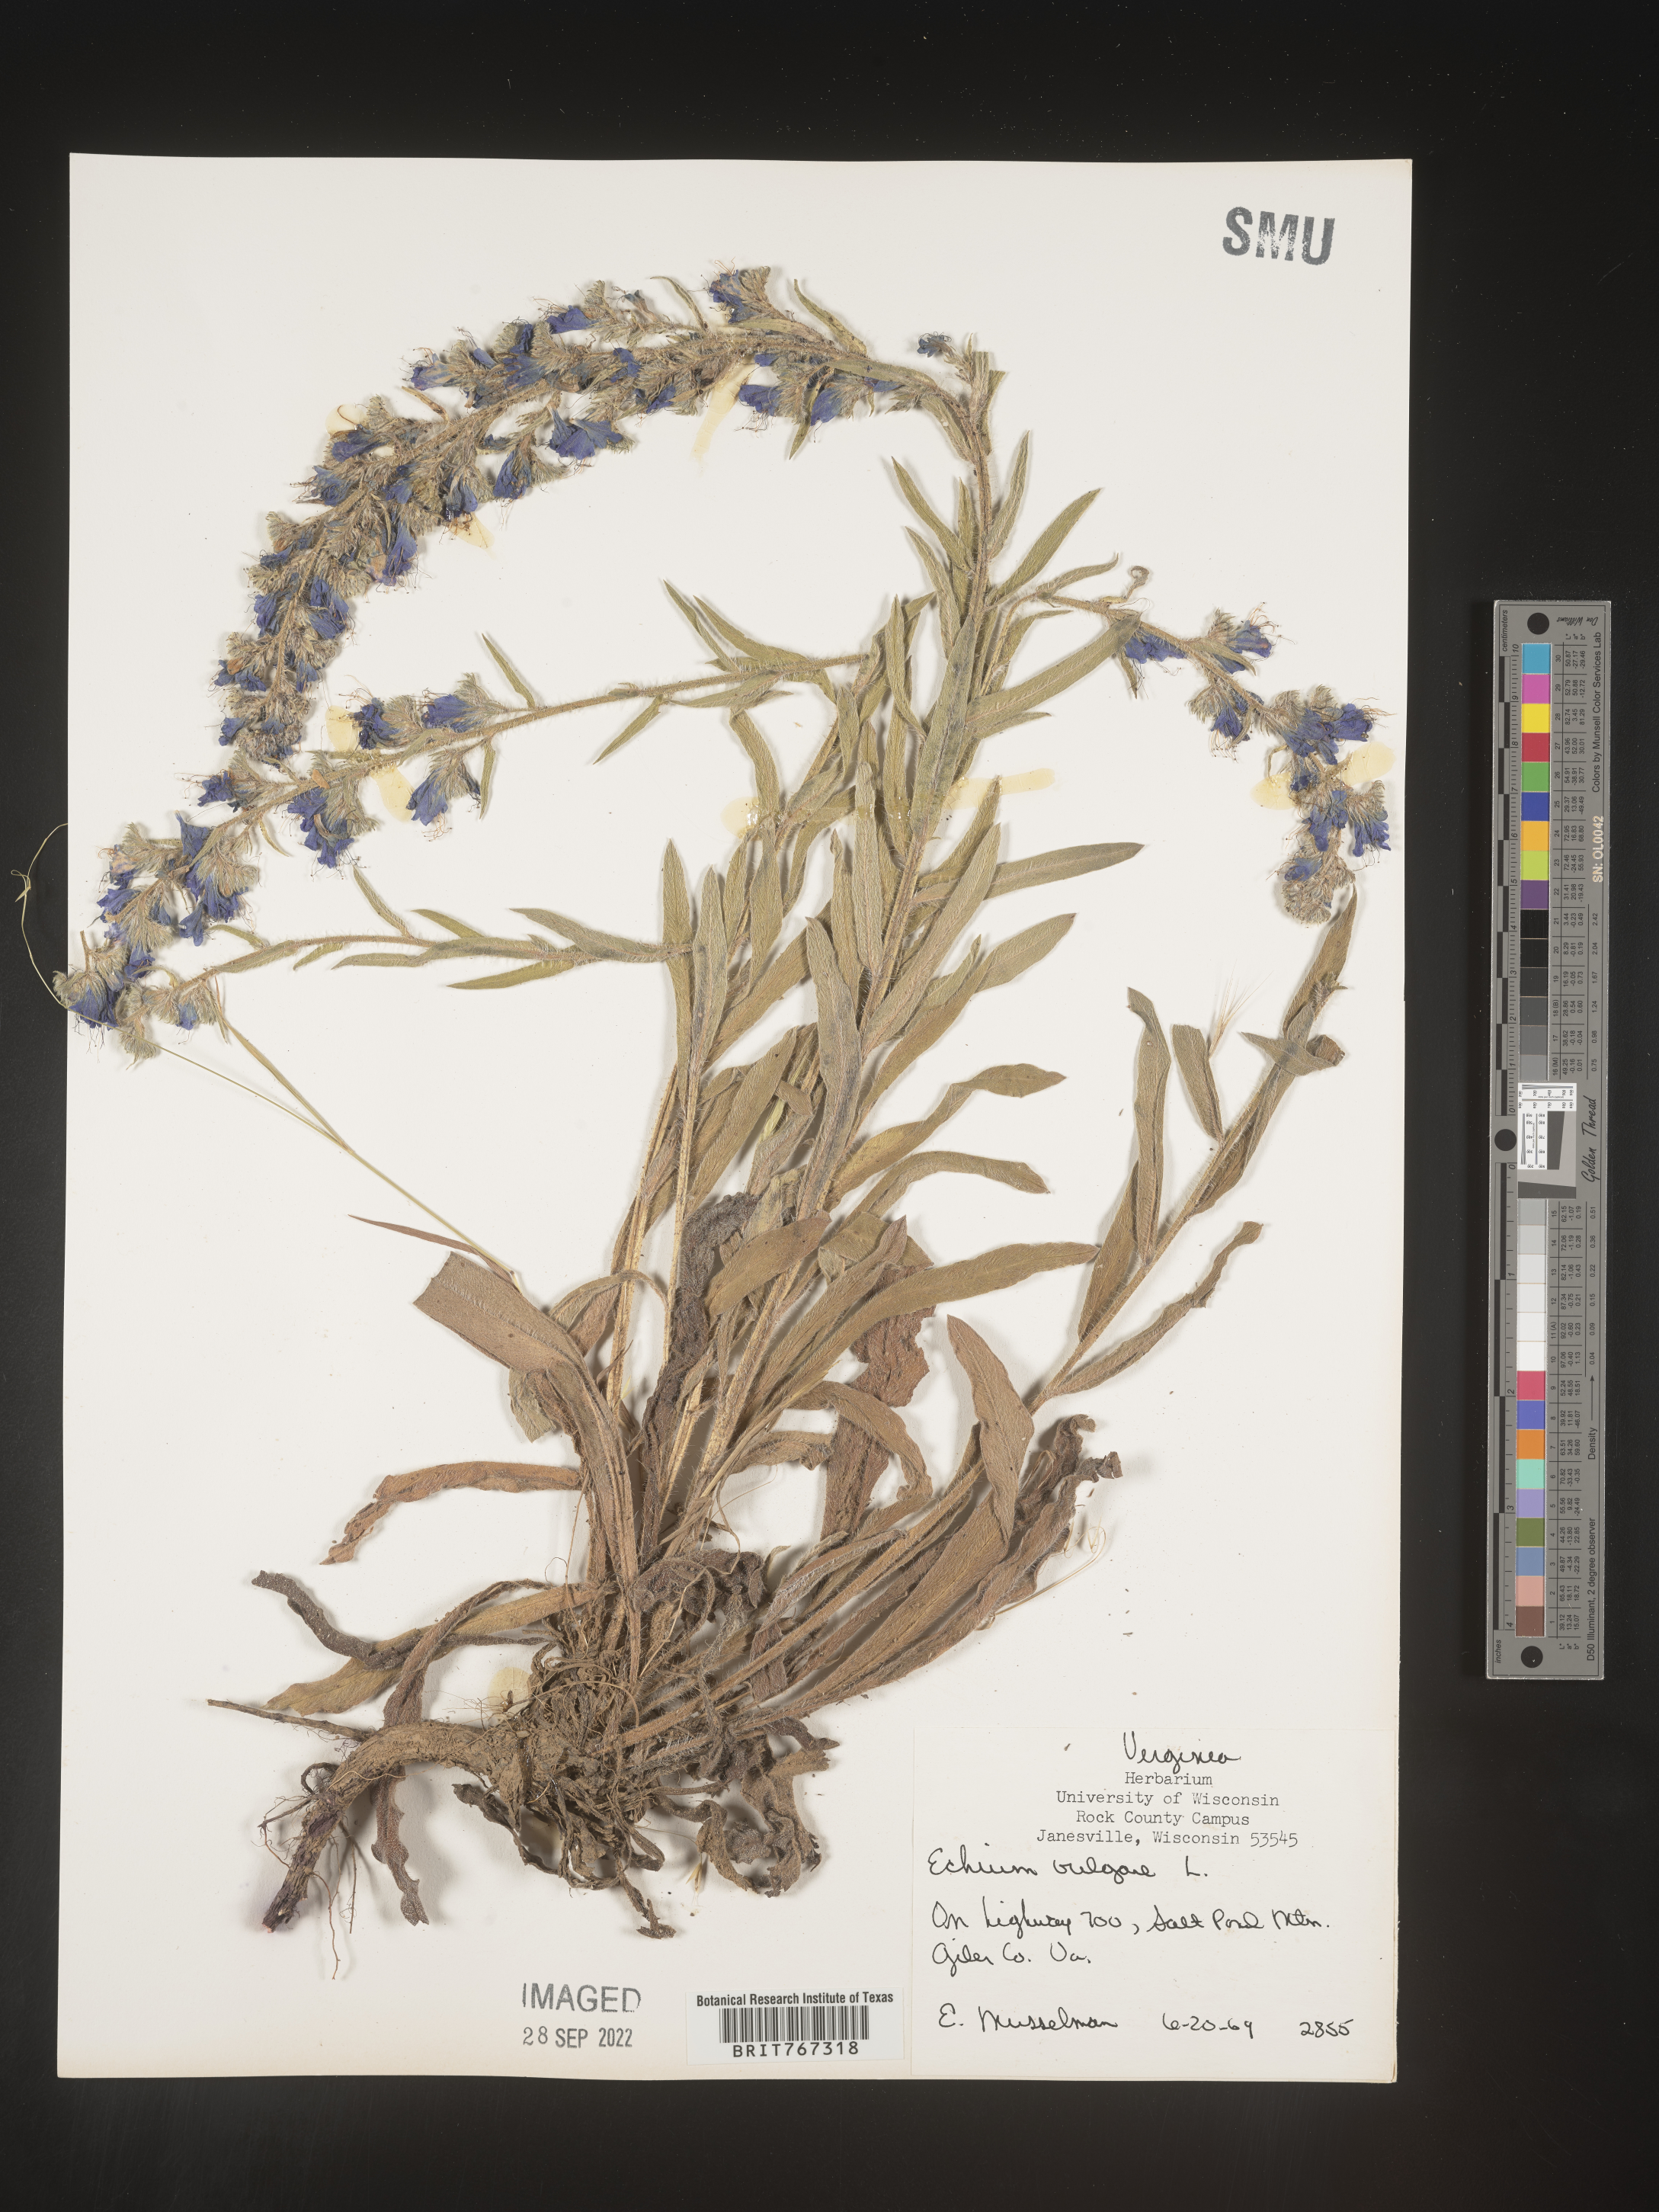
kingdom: Plantae
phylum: Tracheophyta
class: Magnoliopsida
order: Boraginales
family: Boraginaceae
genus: Echium
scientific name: Echium
